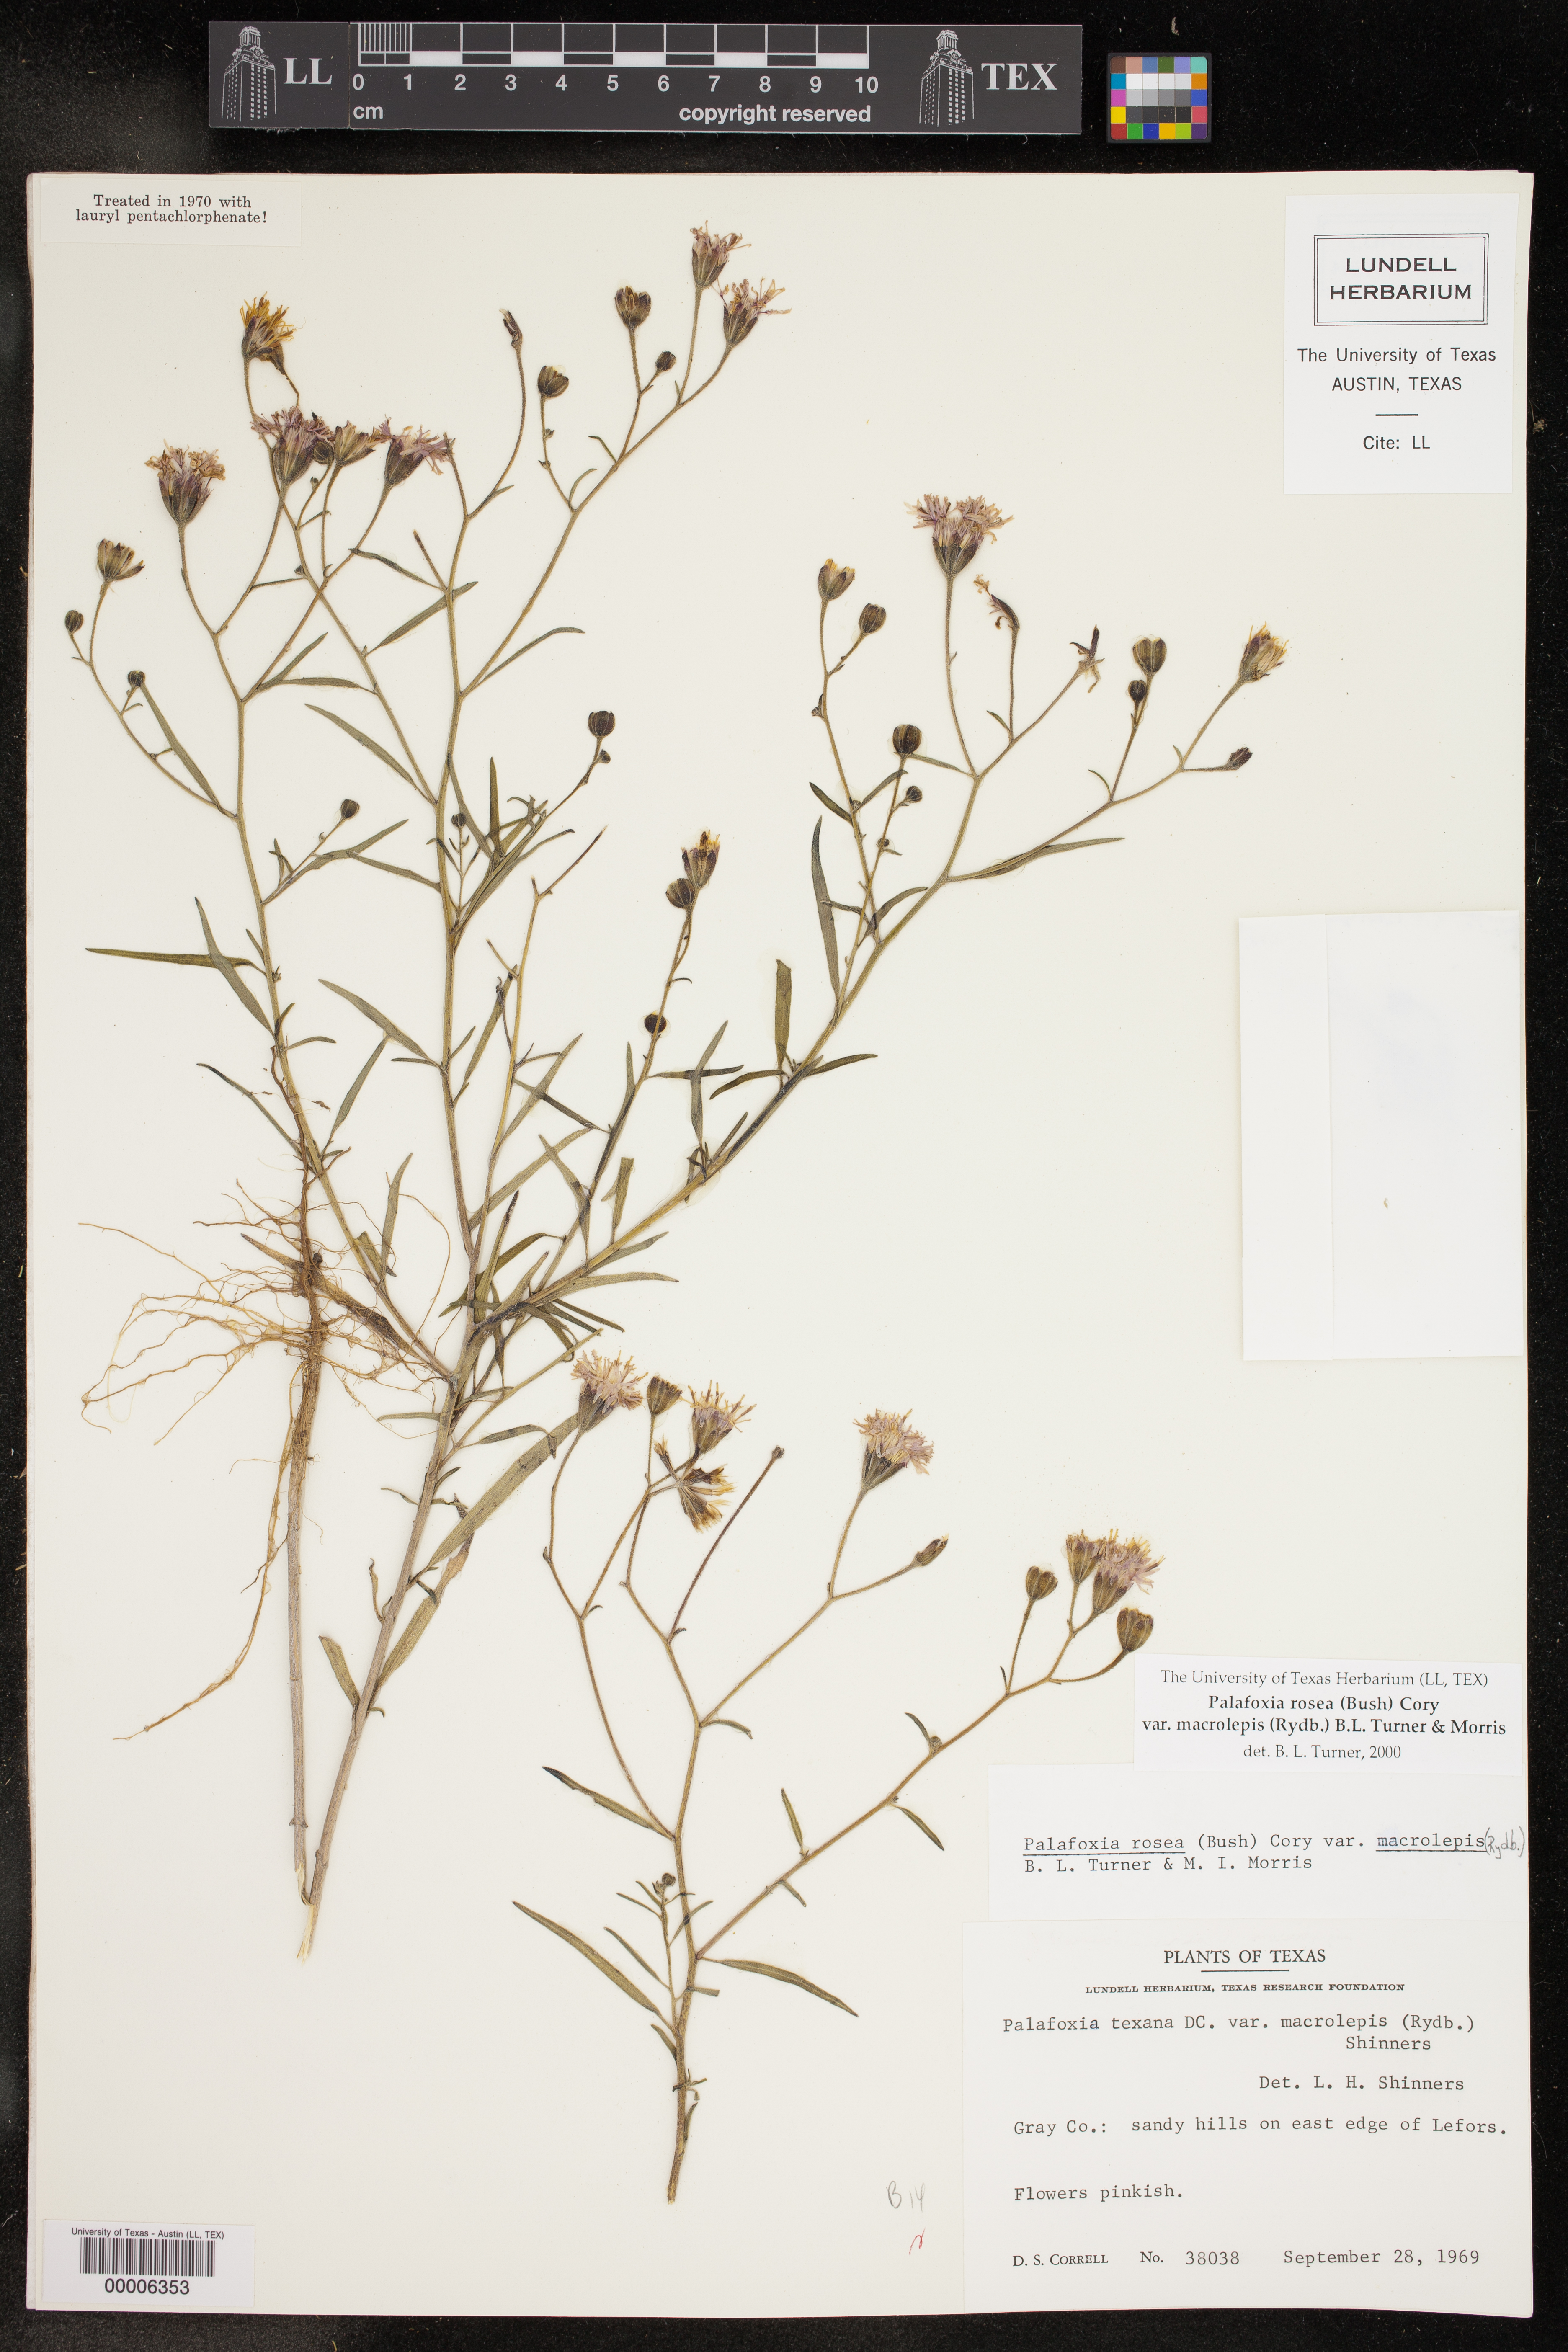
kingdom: Plantae
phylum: Tracheophyta
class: Magnoliopsida
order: Asterales
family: Asteraceae
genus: Palafoxia
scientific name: Palafoxia rosea
